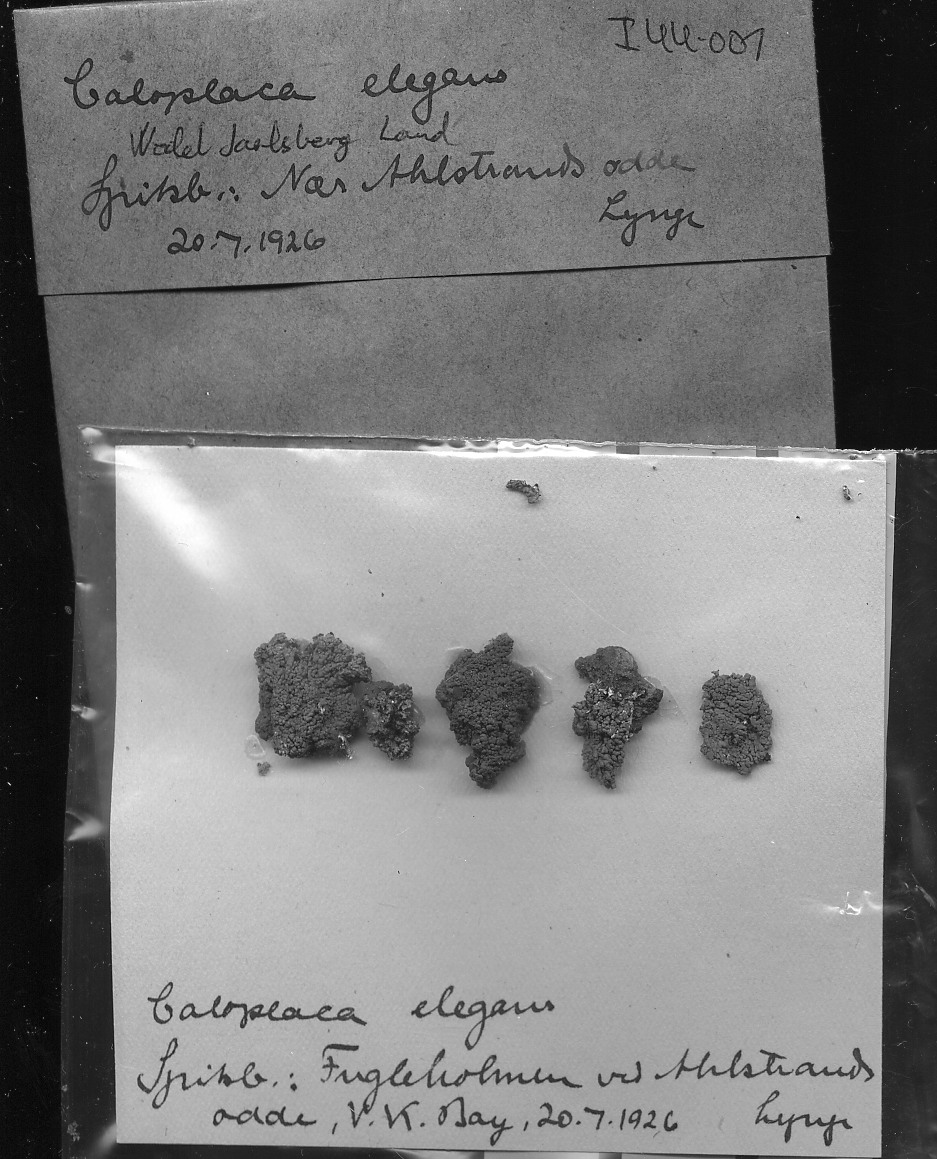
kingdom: Fungi
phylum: Ascomycota
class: Lecanoromycetes
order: Teloschistales
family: Teloschistaceae
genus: Xanthoria
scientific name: Xanthoria elegans
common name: Elegant sunburst lichen
